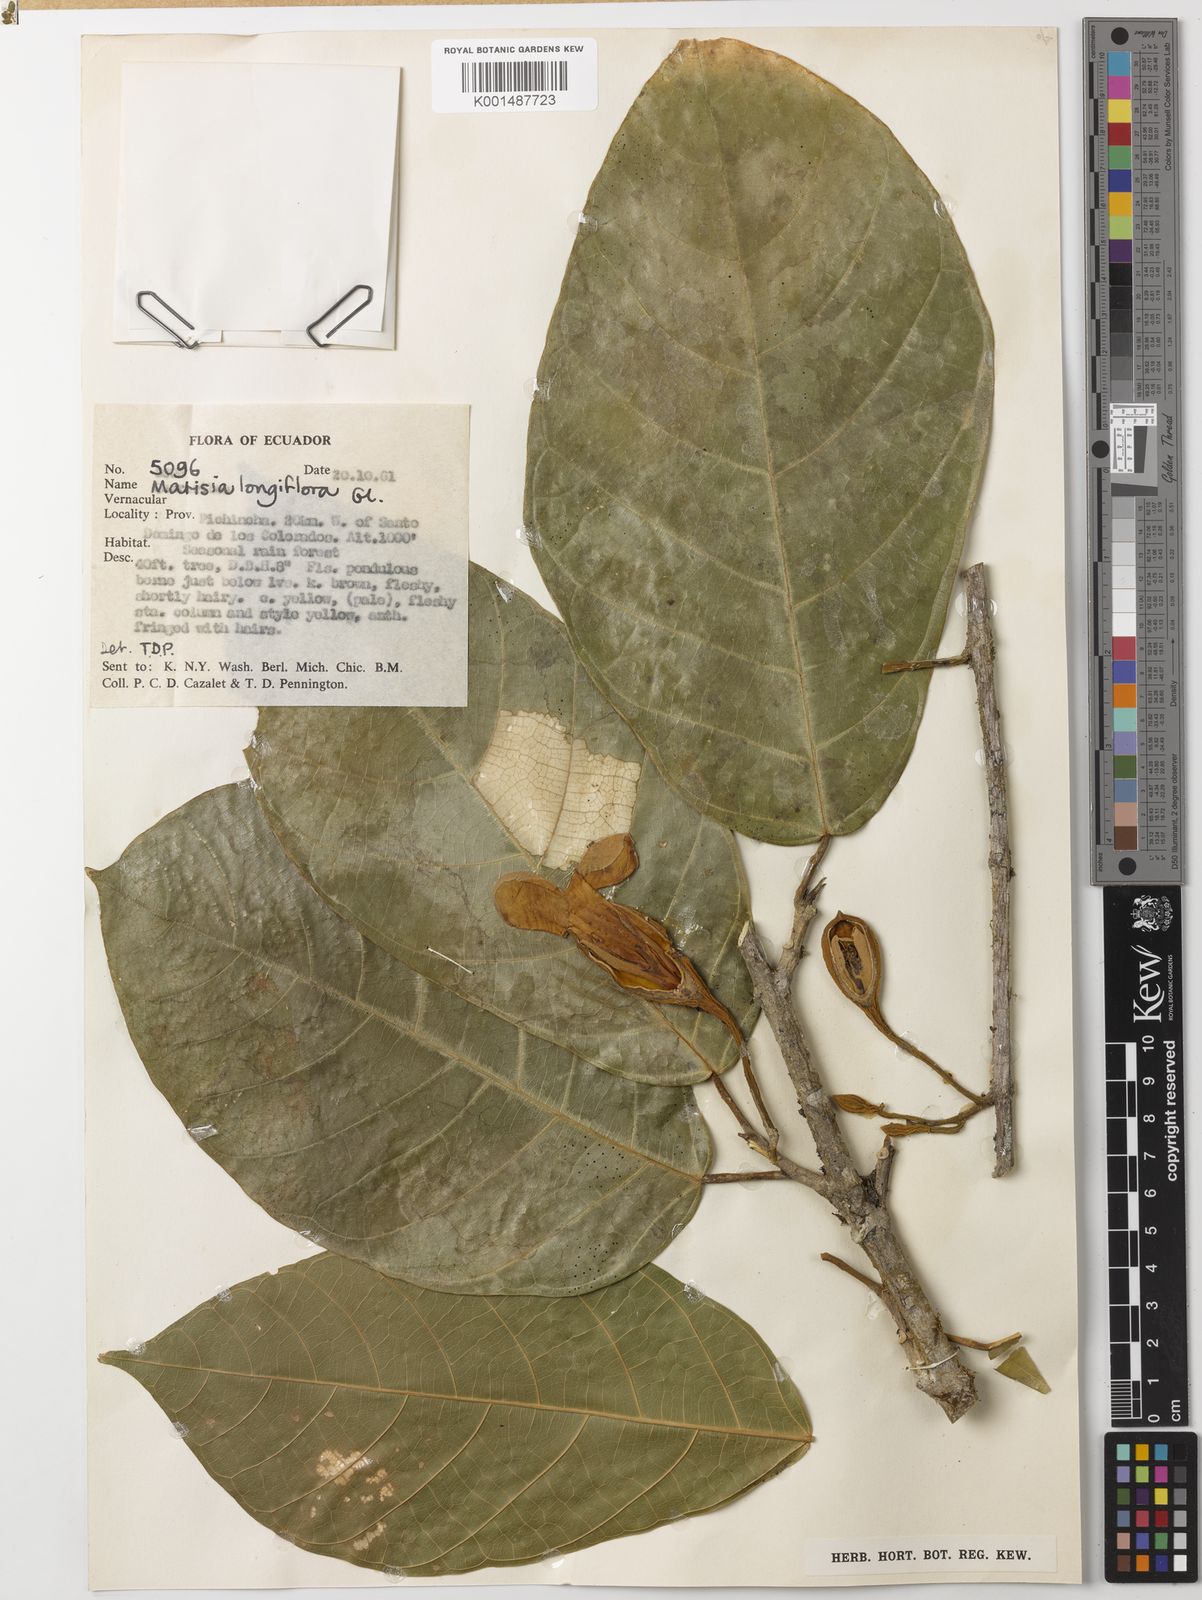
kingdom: Plantae
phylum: Tracheophyta
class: Magnoliopsida
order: Malvales
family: Malvaceae
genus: Matisia
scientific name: Matisia longiflora
